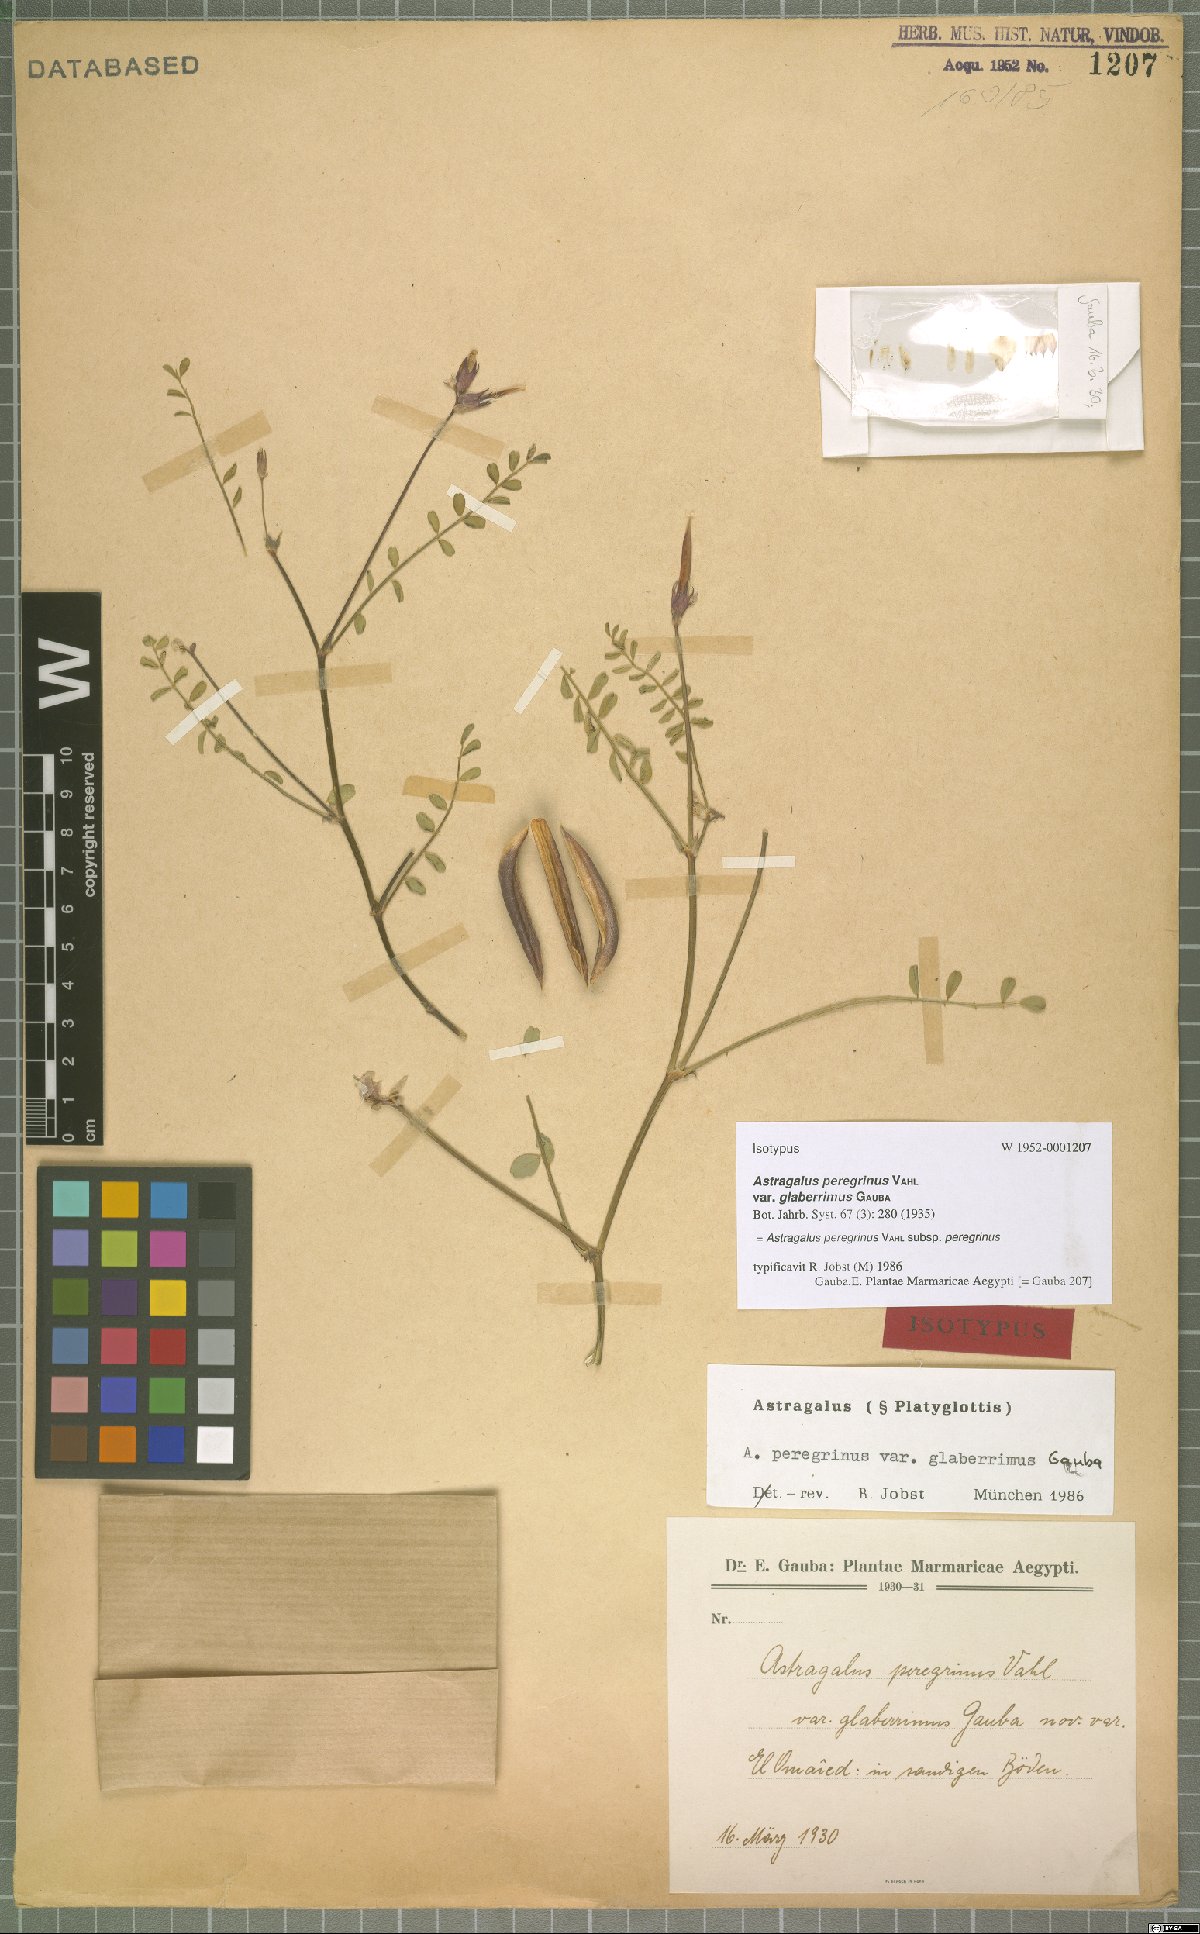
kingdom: Plantae
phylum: Tracheophyta
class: Magnoliopsida
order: Fabales
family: Fabaceae
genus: Astragalus
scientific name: Astragalus peregrinus
